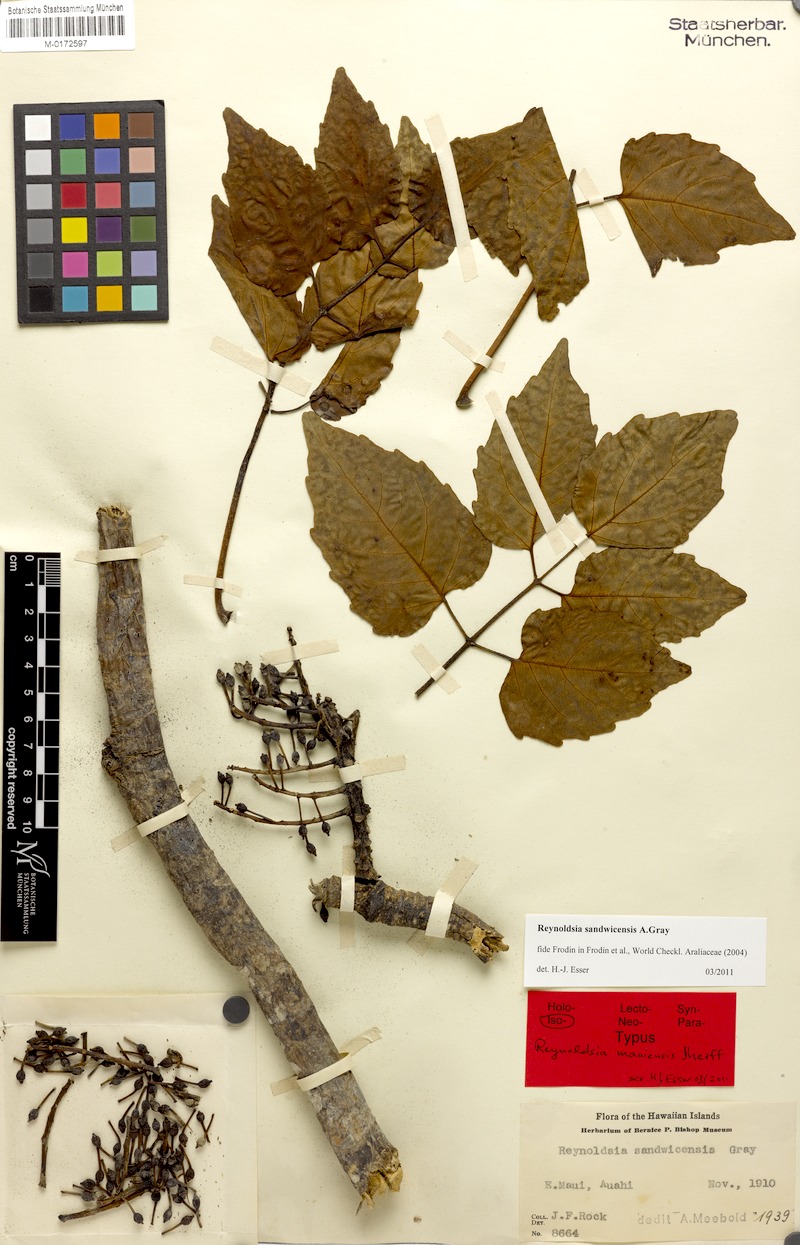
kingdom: Plantae
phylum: Tracheophyta
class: Magnoliopsida
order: Apiales
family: Araliaceae
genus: Polyscias
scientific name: Polyscias sandwicensis
